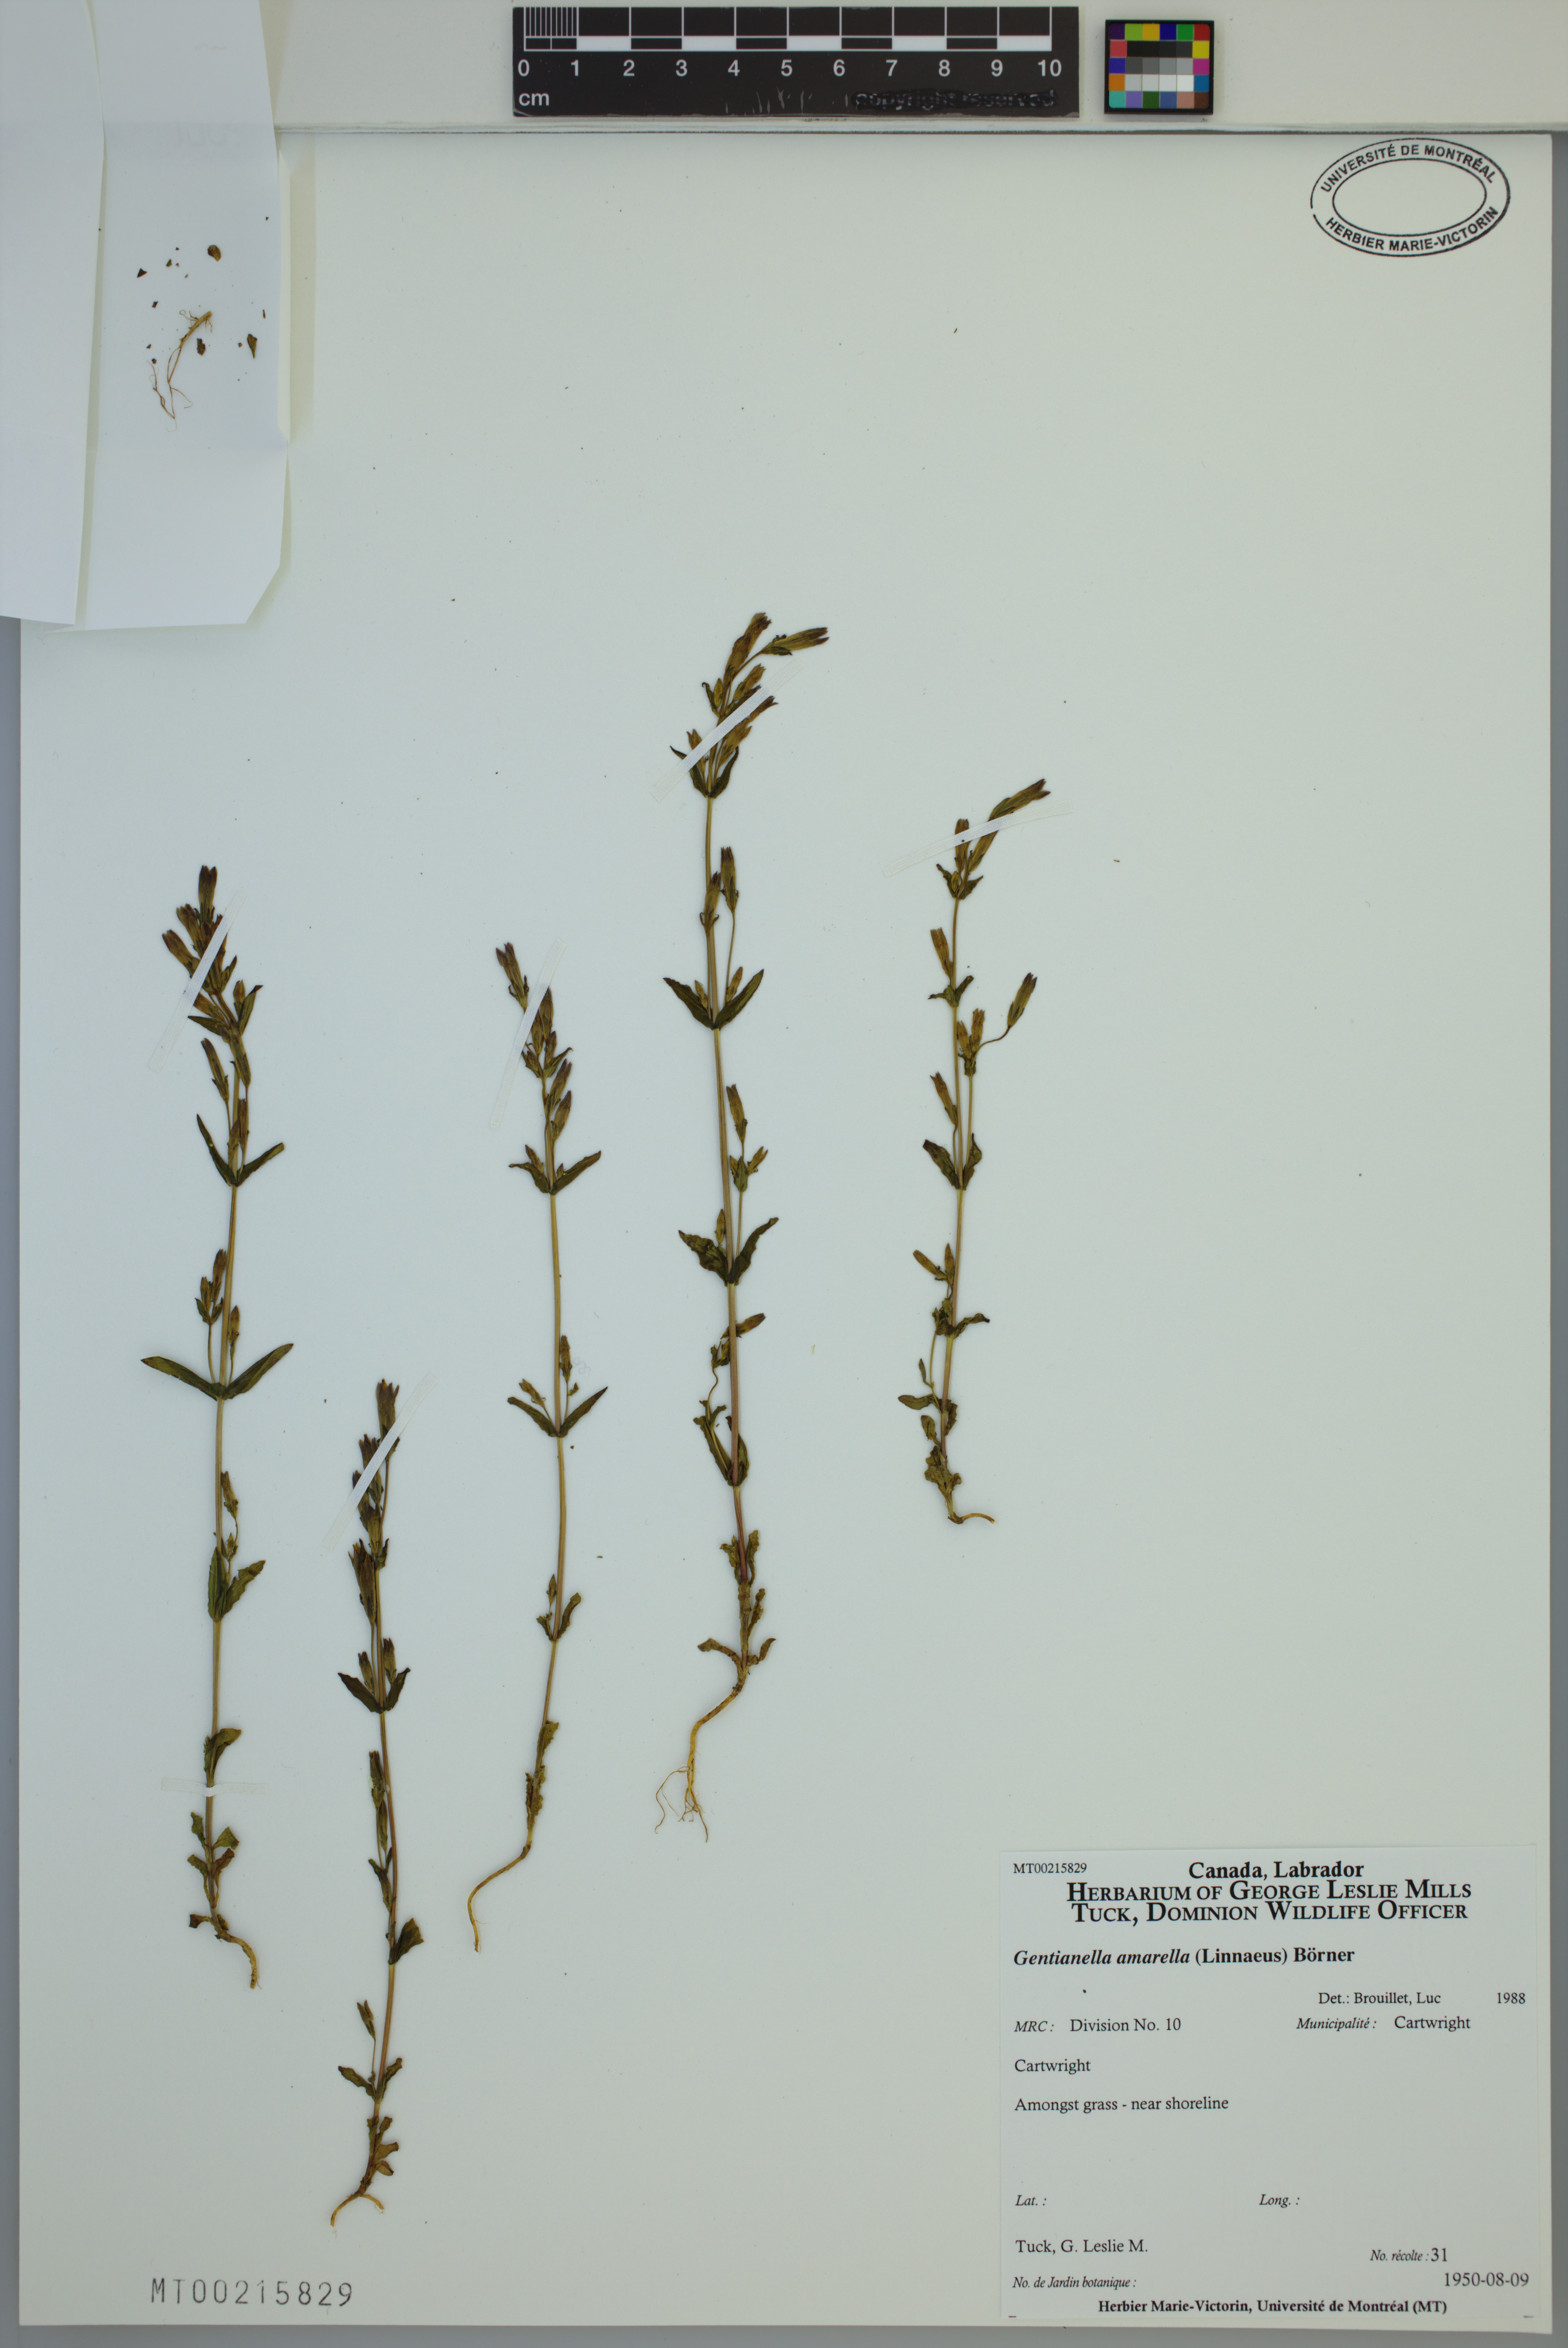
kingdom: Plantae
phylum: Tracheophyta
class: Magnoliopsida
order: Gentianales
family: Gentianaceae
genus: Gentianella
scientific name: Gentianella amarella
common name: Autumn gentian
